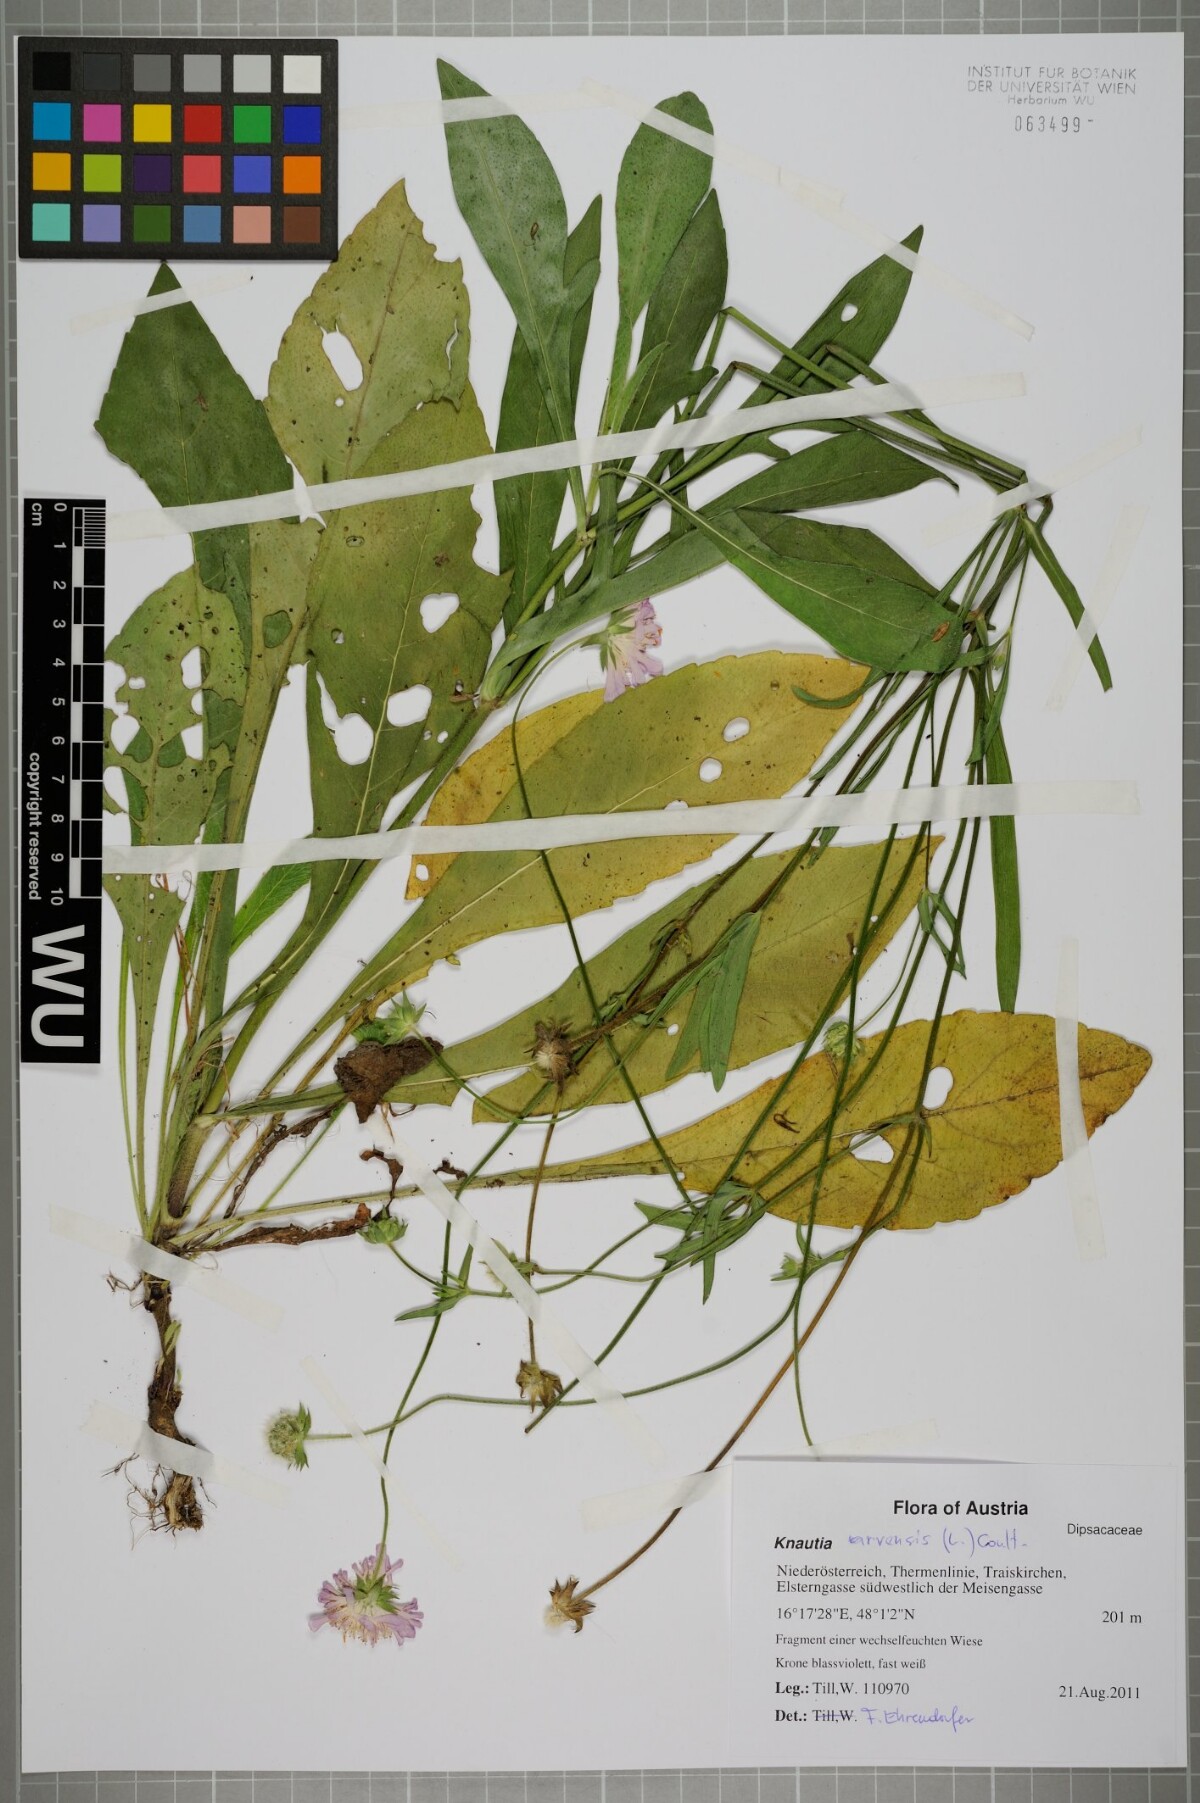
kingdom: Plantae
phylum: Tracheophyta
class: Magnoliopsida
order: Dipsacales
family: Caprifoliaceae
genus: Knautia
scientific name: Knautia arvensis
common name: Field scabiosa
